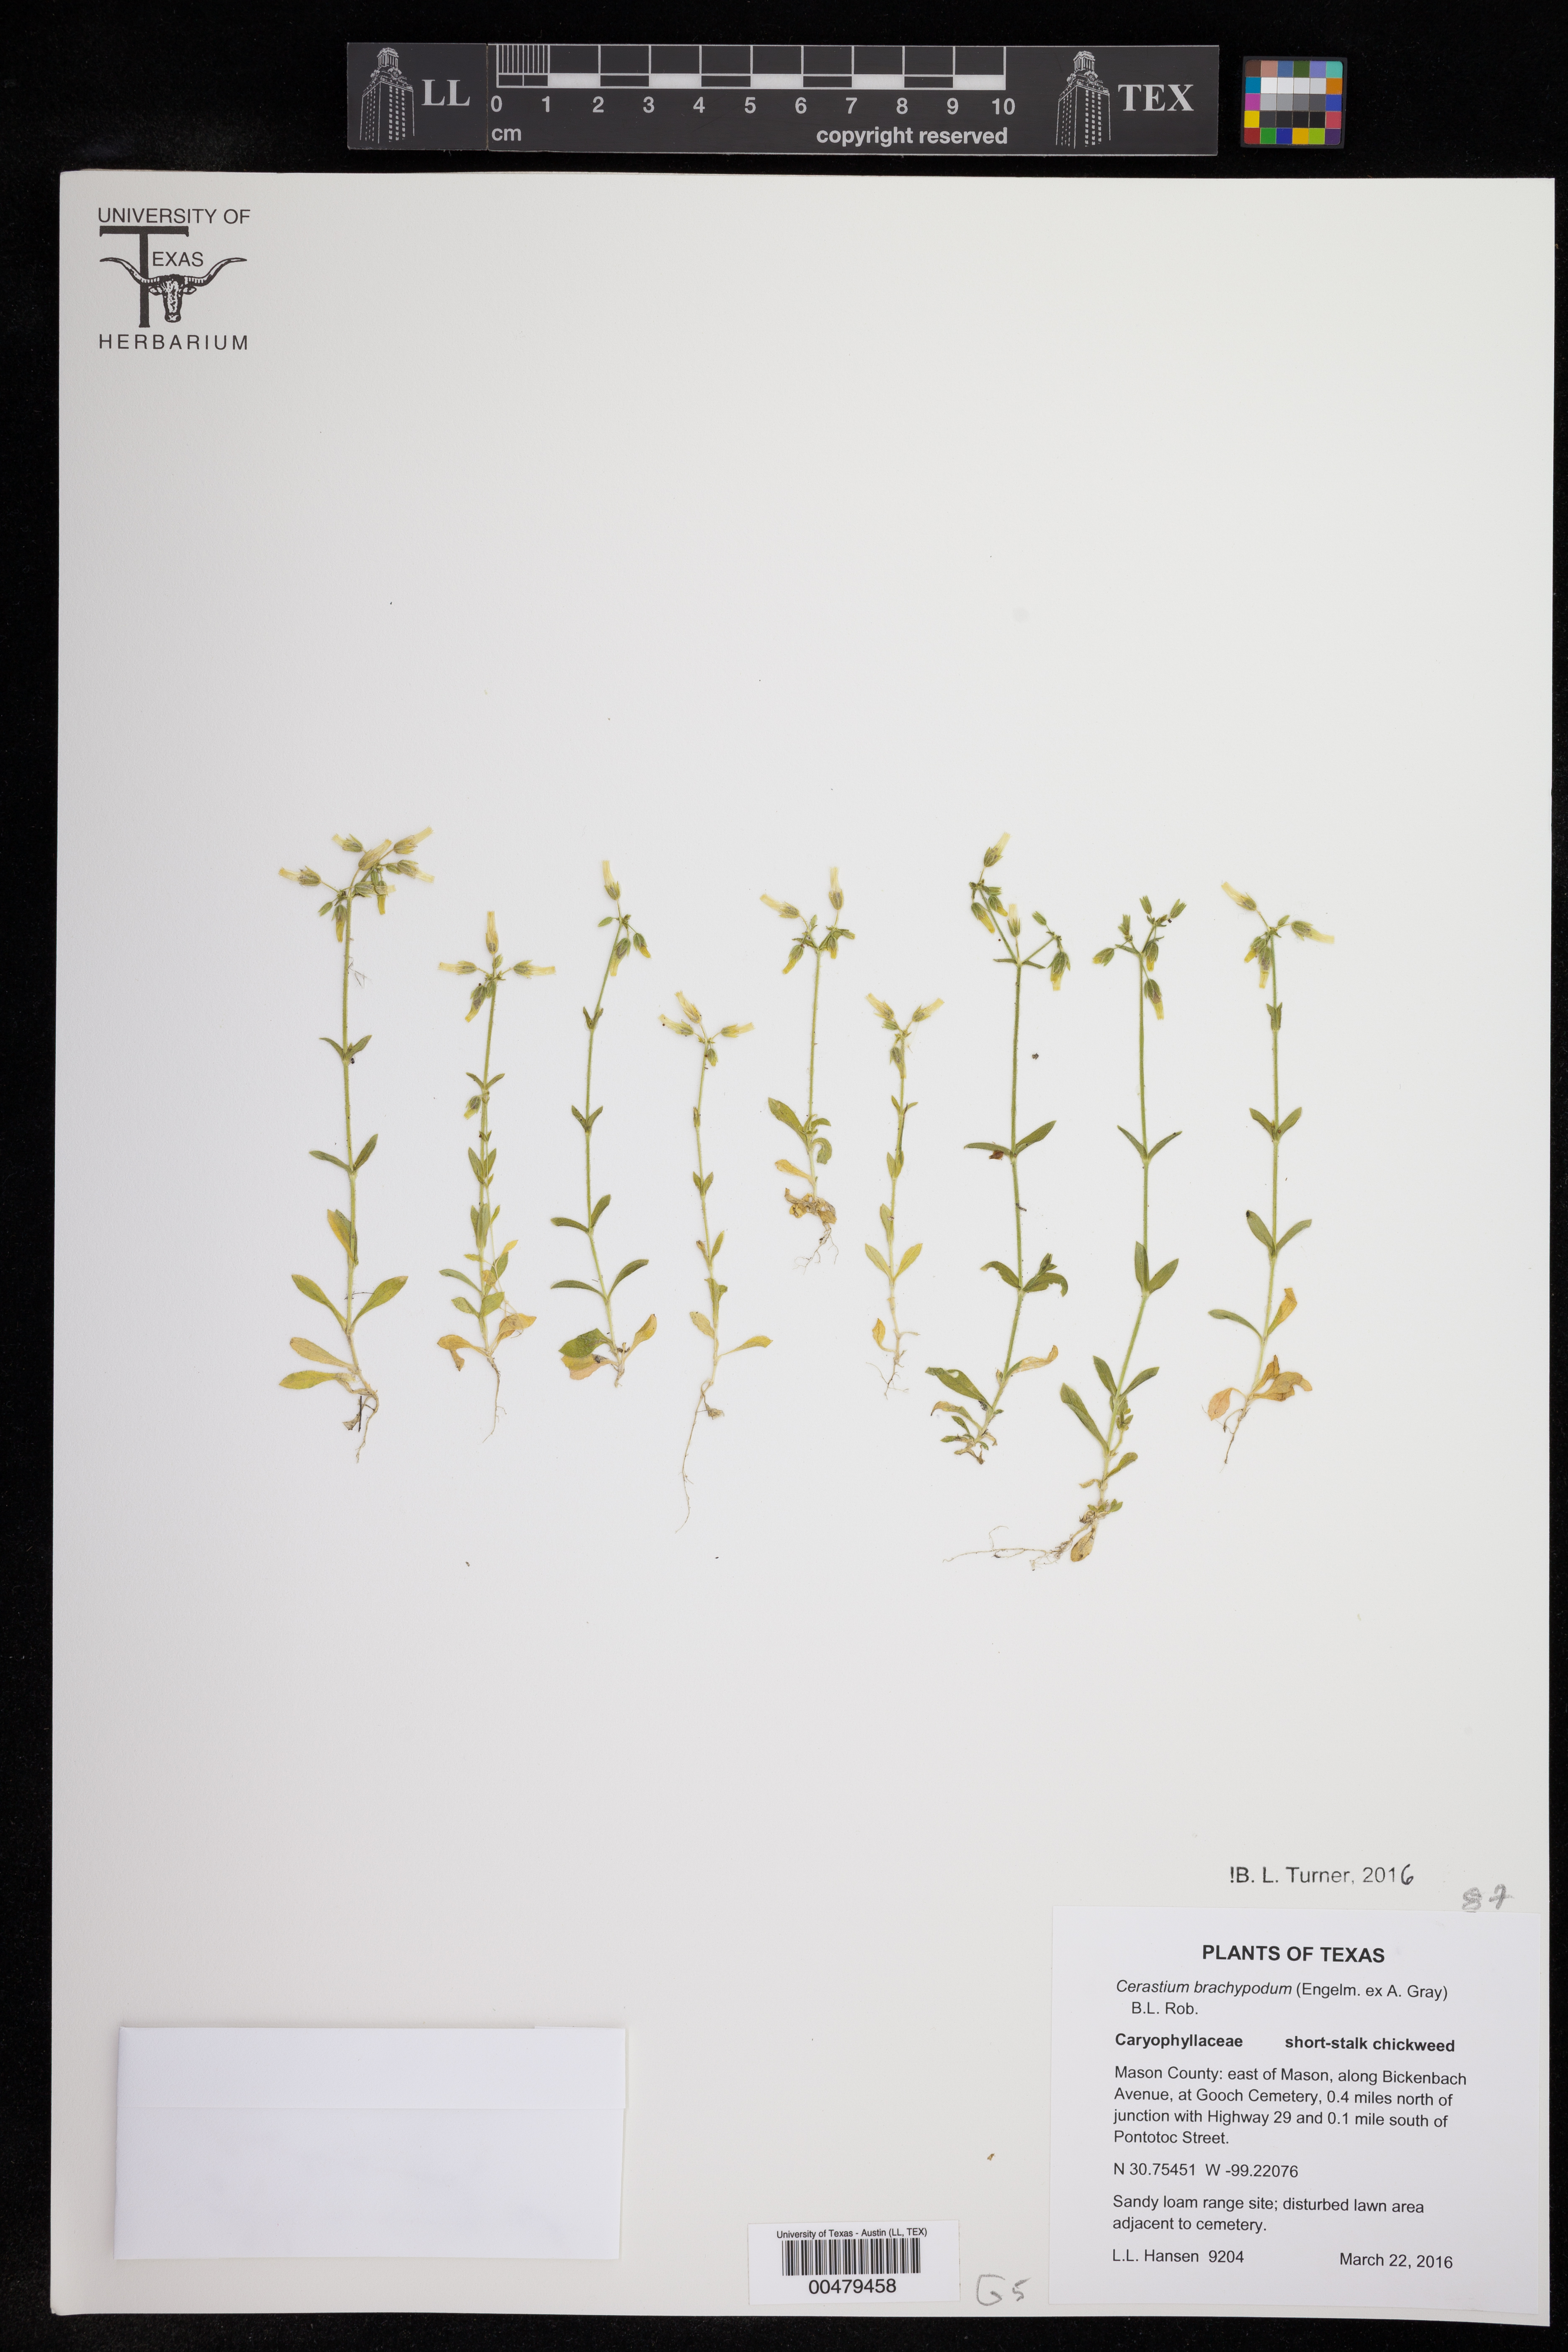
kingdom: Plantae
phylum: Tracheophyta
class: Magnoliopsida
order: Caryophyllales
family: Caryophyllaceae
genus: Cerastium
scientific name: Cerastium brachypodum
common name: Short-pedicelled nodding chickweed
